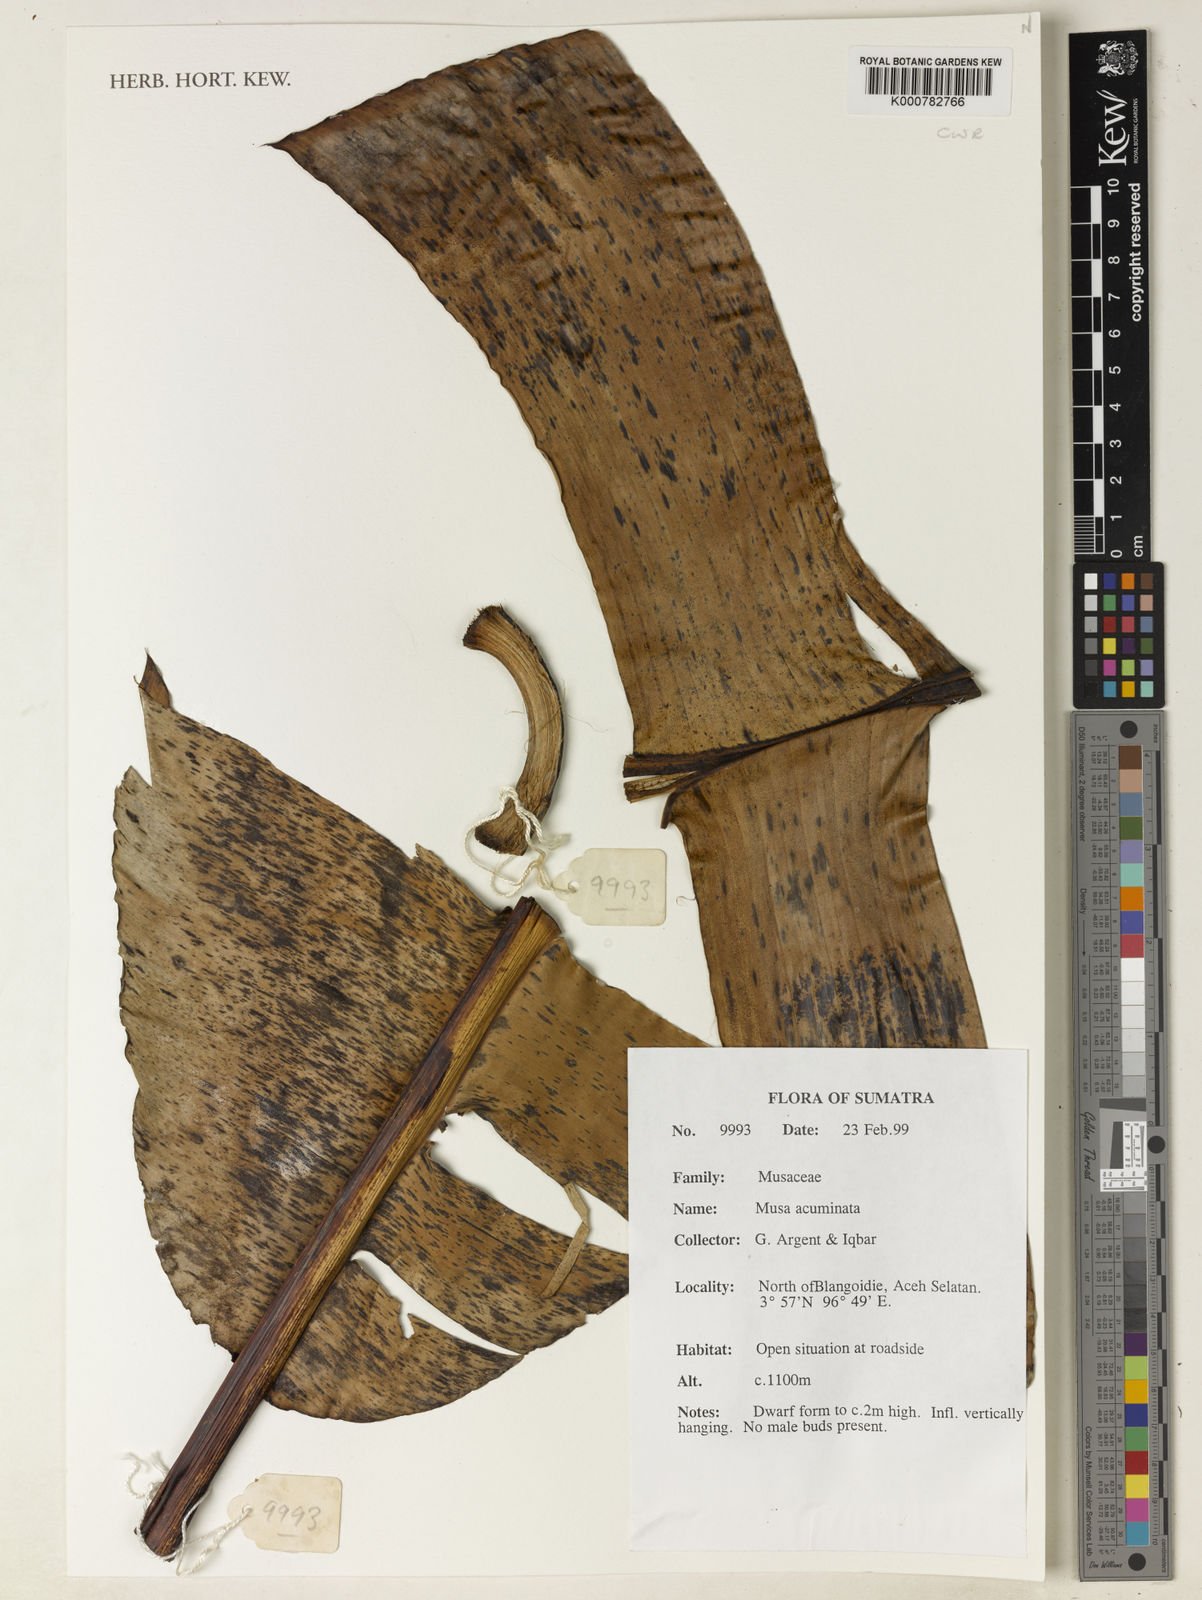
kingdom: Plantae
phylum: Tracheophyta
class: Liliopsida
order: Zingiberales
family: Musaceae
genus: Musa
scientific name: Musa acuminata
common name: Edible banana
